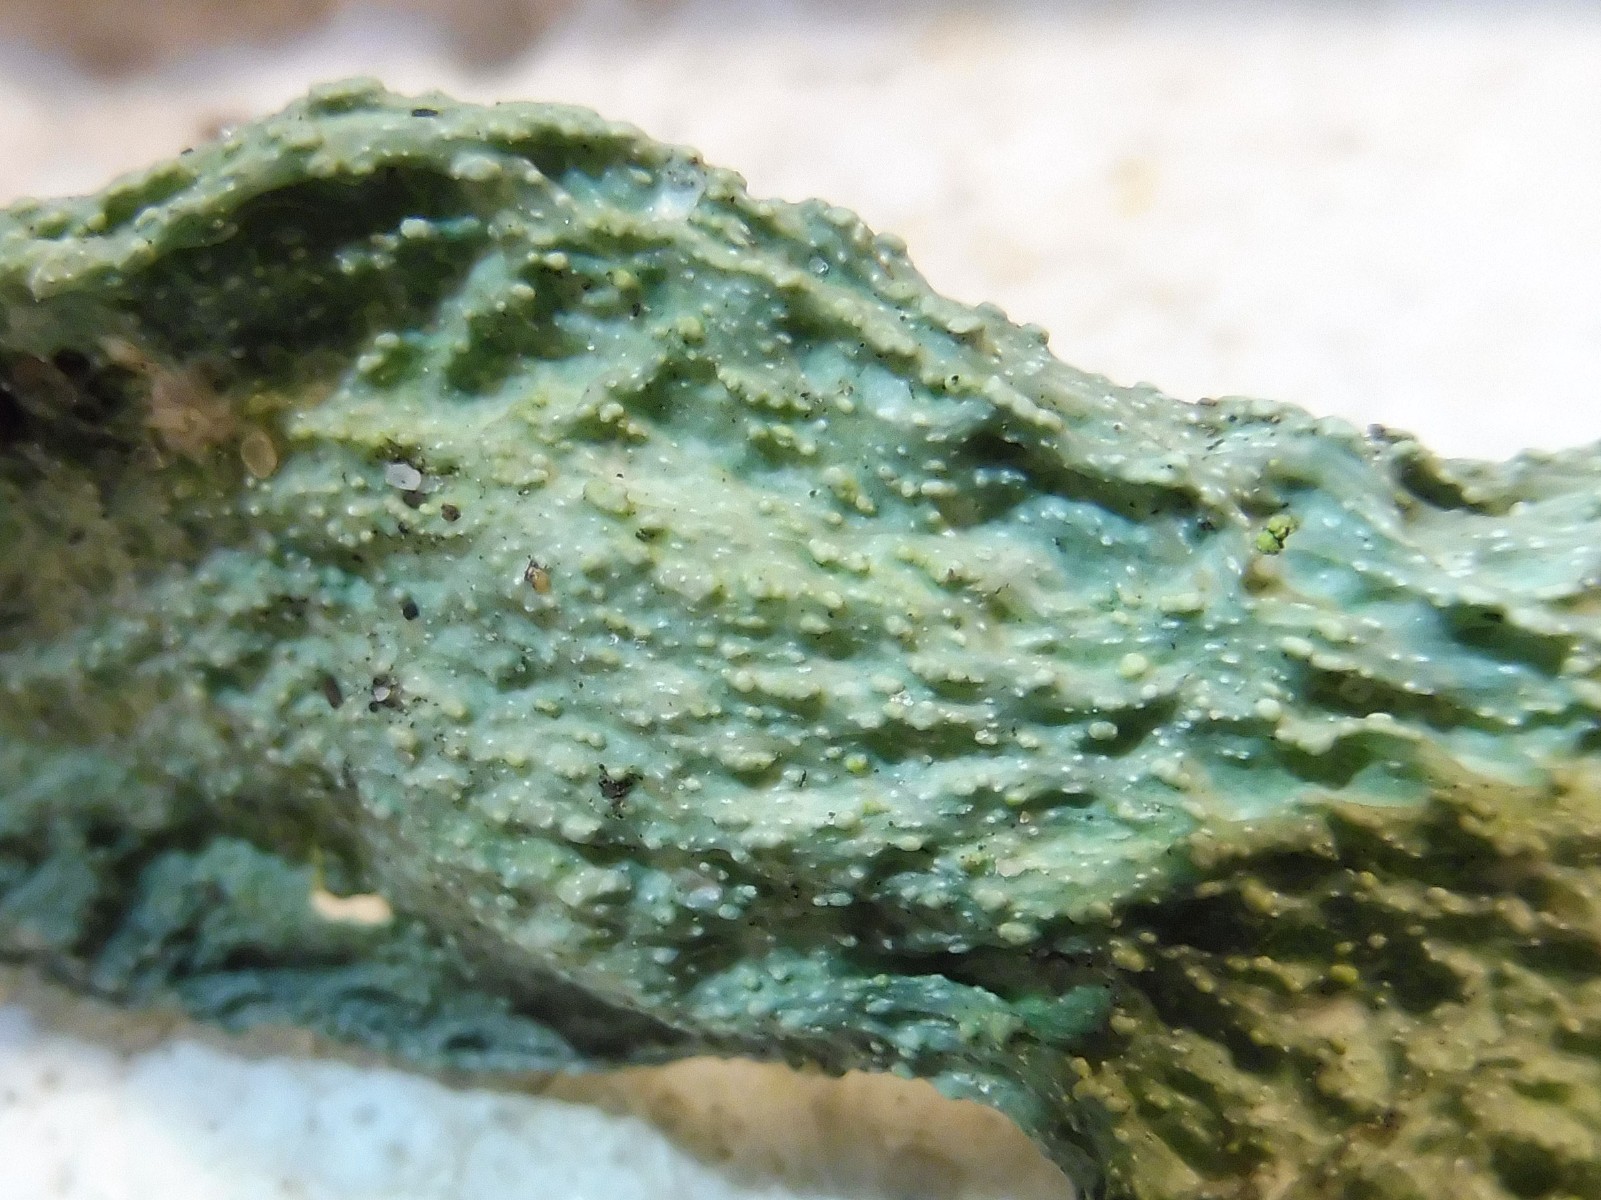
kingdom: Fungi
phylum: Ascomycota
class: Lecanoromycetes
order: Lecanorales
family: Ramalinaceae
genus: Ramalina
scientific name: Ramalina fraxinea
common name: stor grenlav
